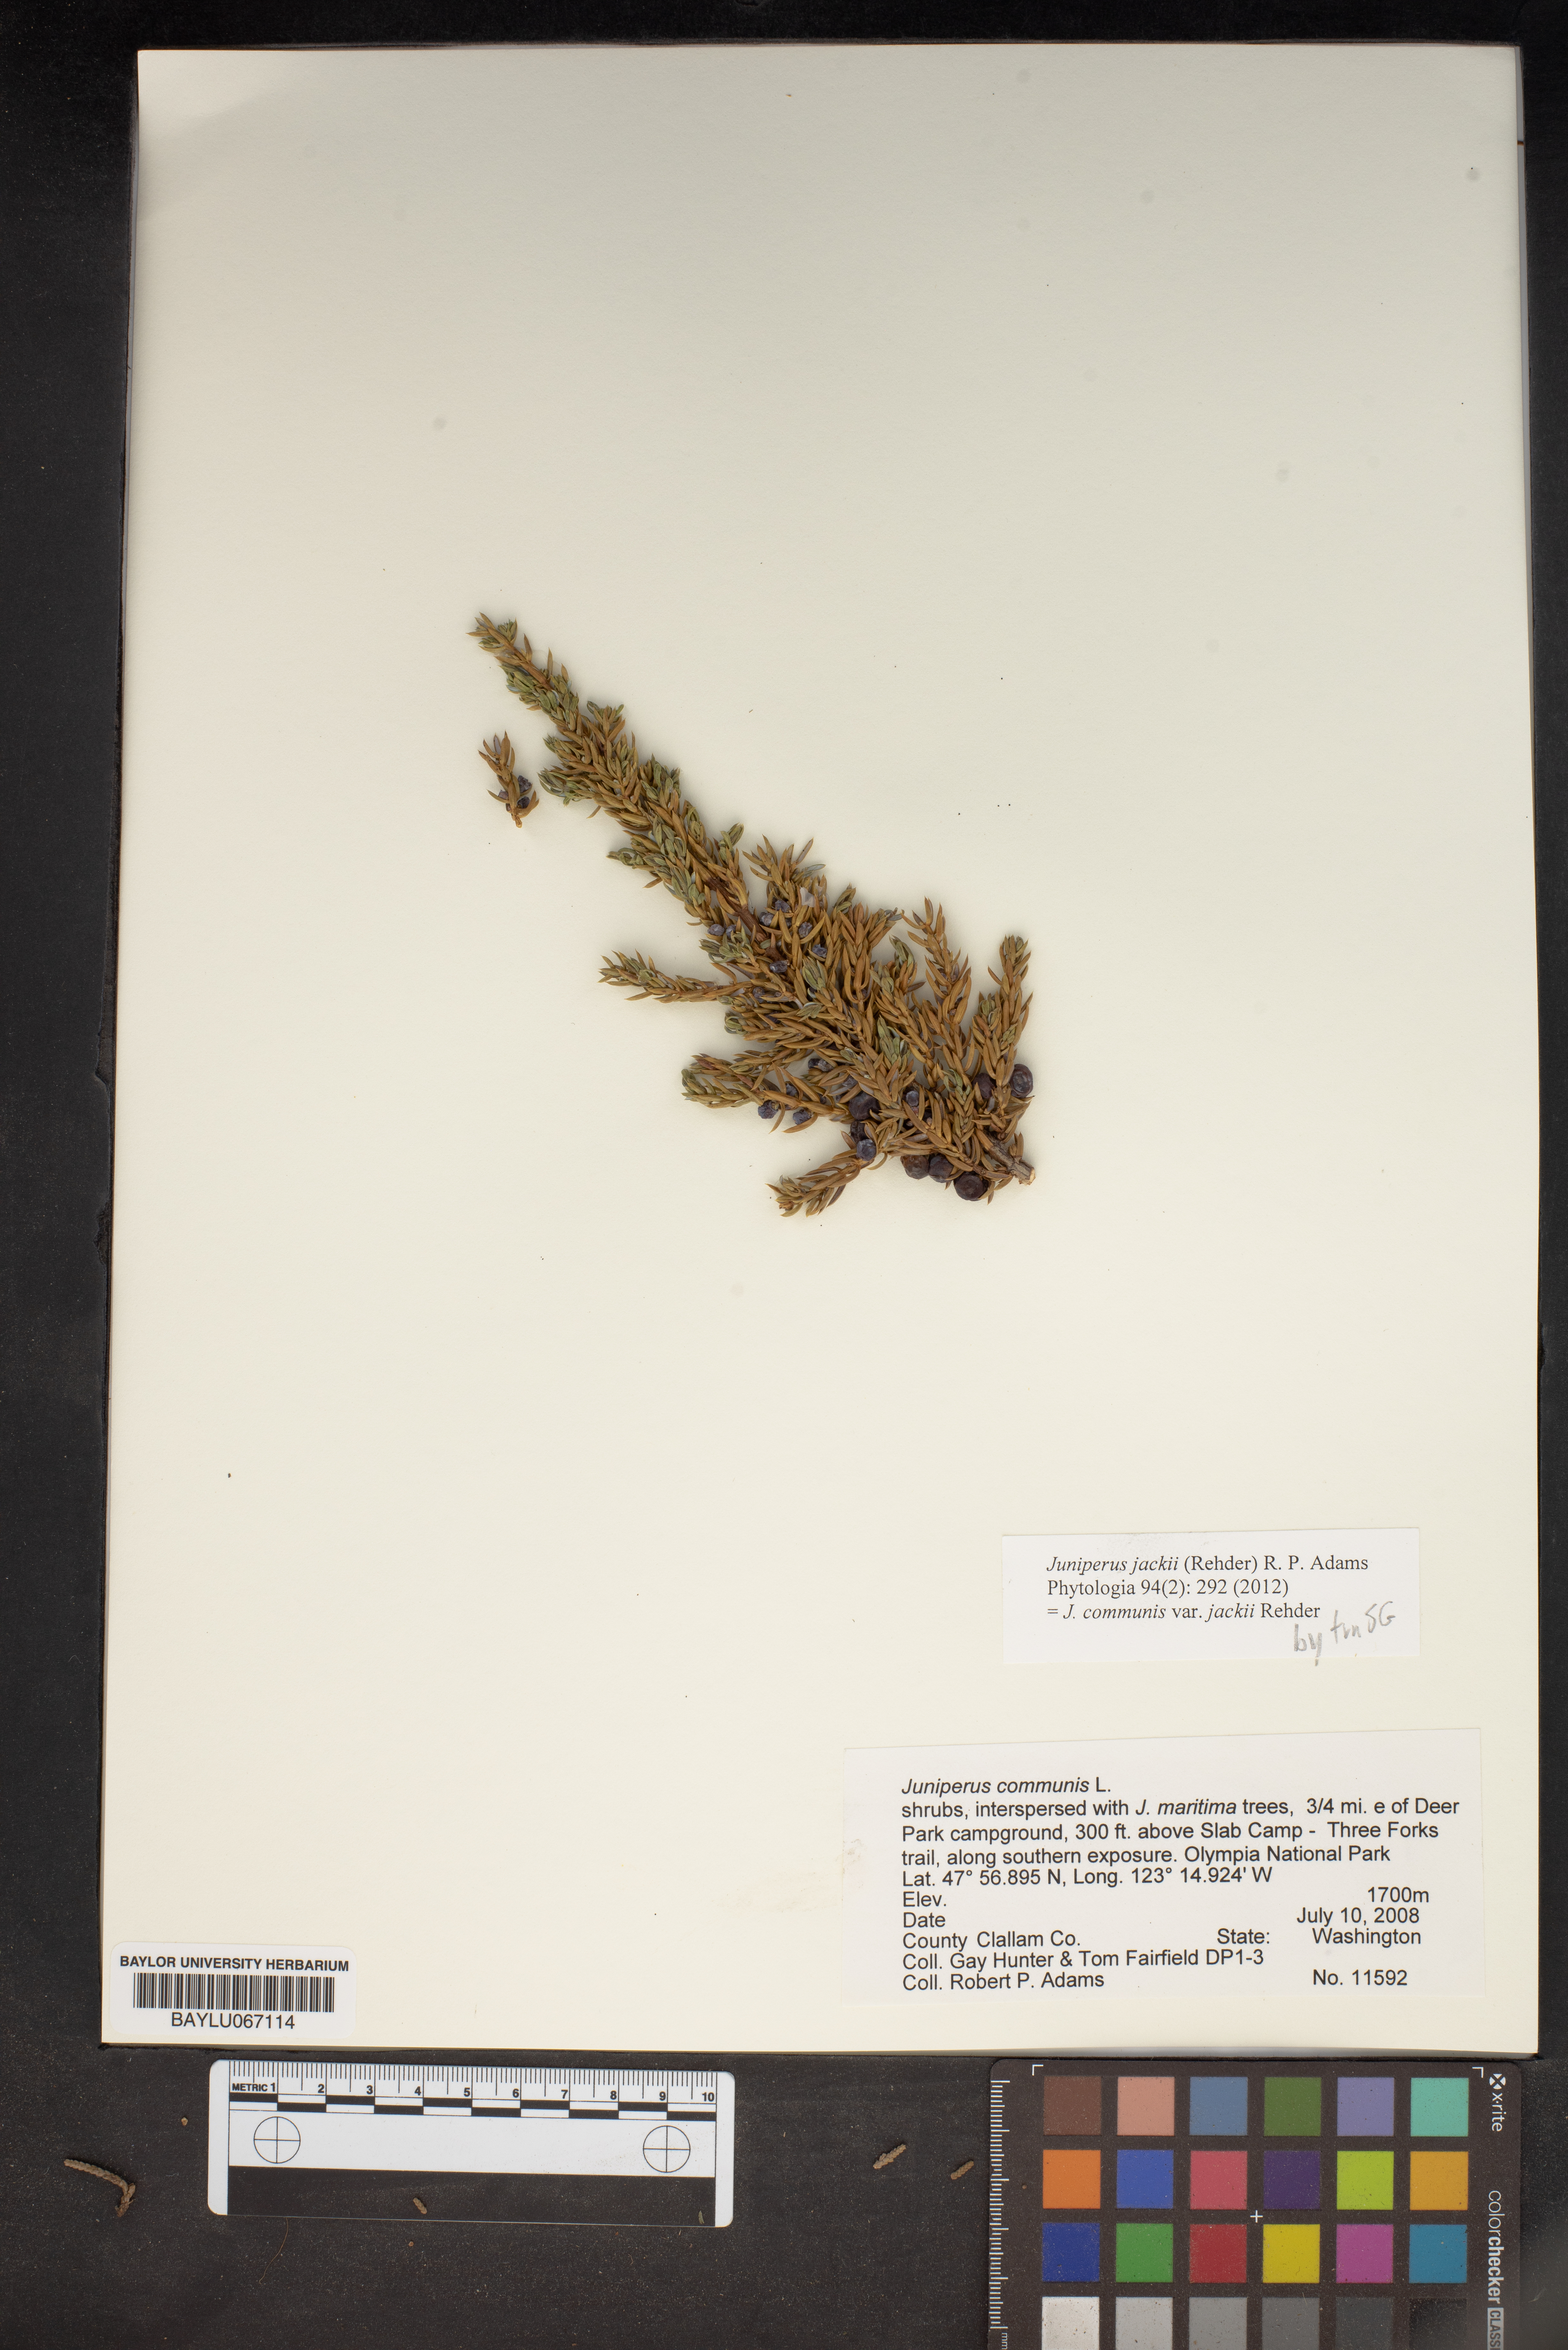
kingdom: Plantae
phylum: Tracheophyta
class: Pinopsida
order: Pinales
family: Cupressaceae
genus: Juniperus
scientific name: Juniperus communis
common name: Common juniper
